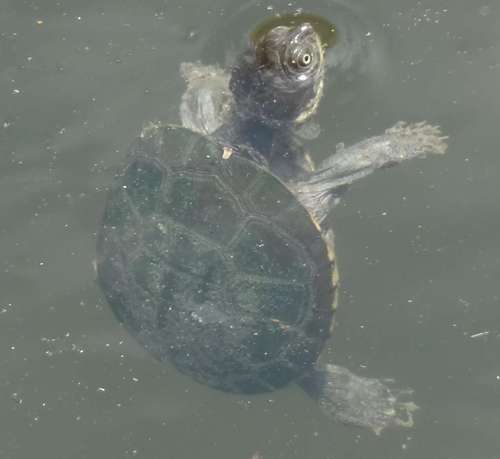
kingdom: Animalia
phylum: Chordata
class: Testudines
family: Pelomedusidae
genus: Pelomedusa
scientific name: Pelomedusa subrufa
